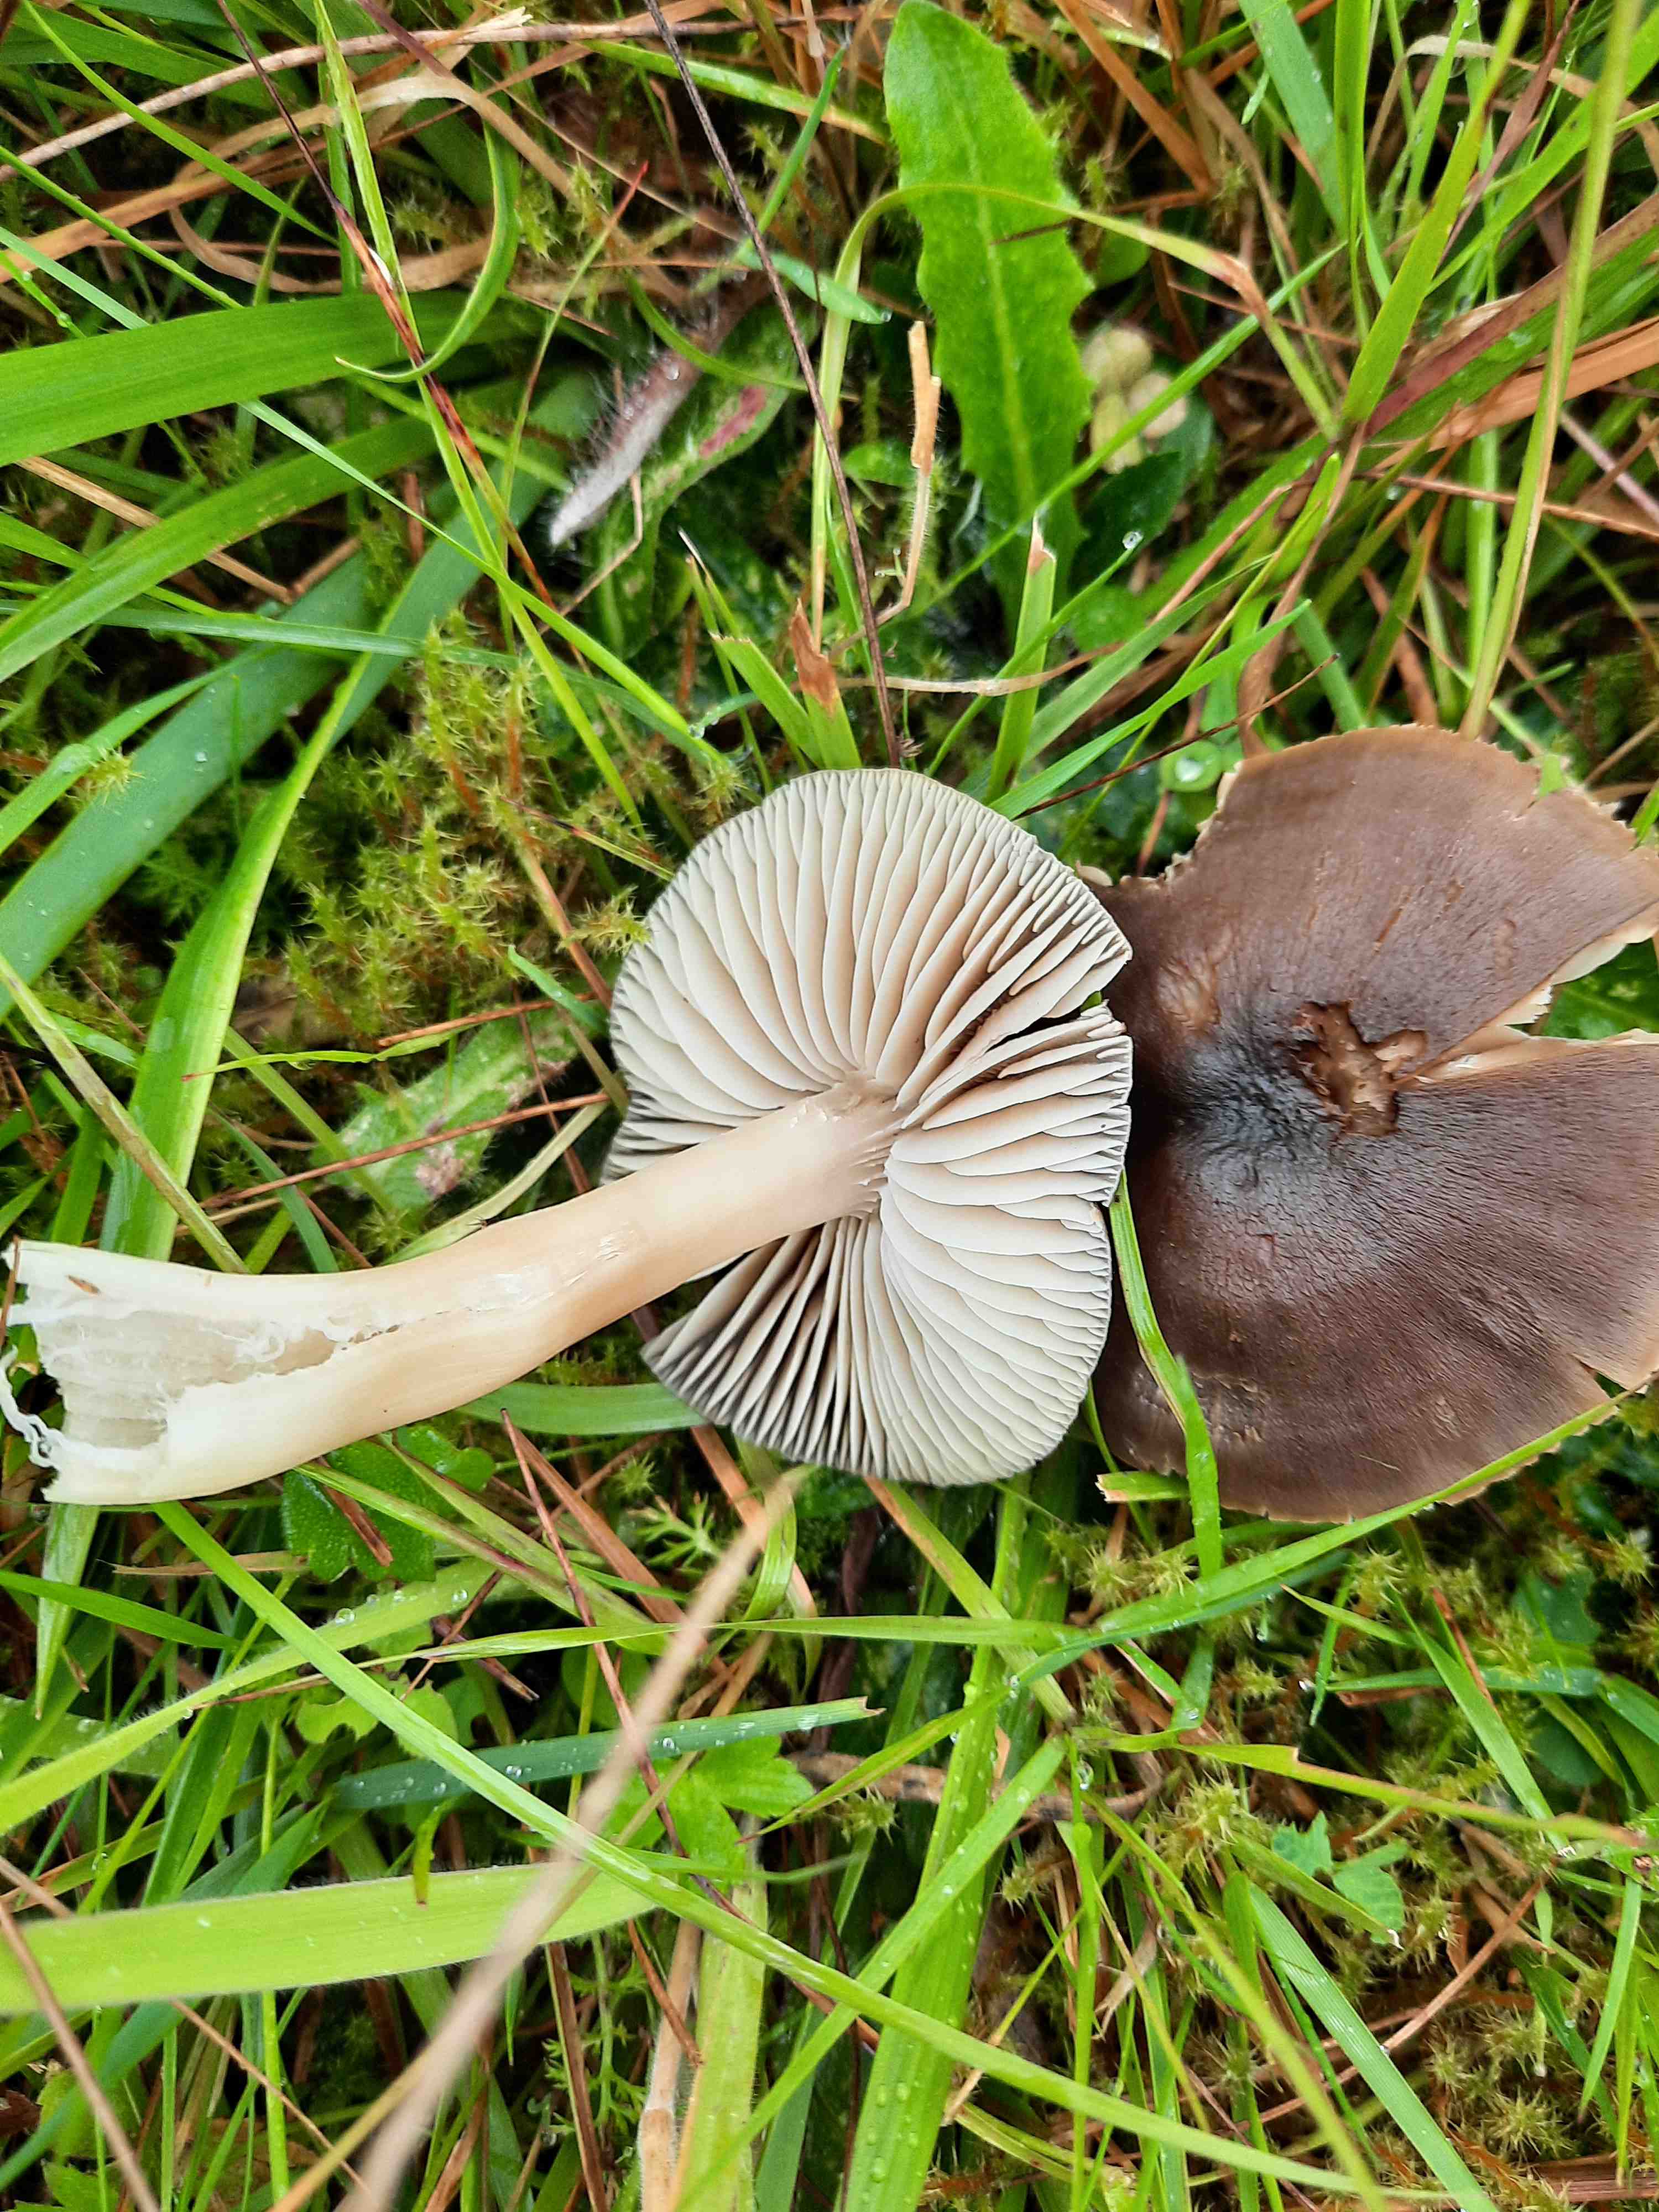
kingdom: Fungi
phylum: Basidiomycota
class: Agaricomycetes
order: Agaricales
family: Hygrophoraceae
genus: Neohygrocybe
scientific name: Neohygrocybe nitrata
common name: stinkende vokshat
